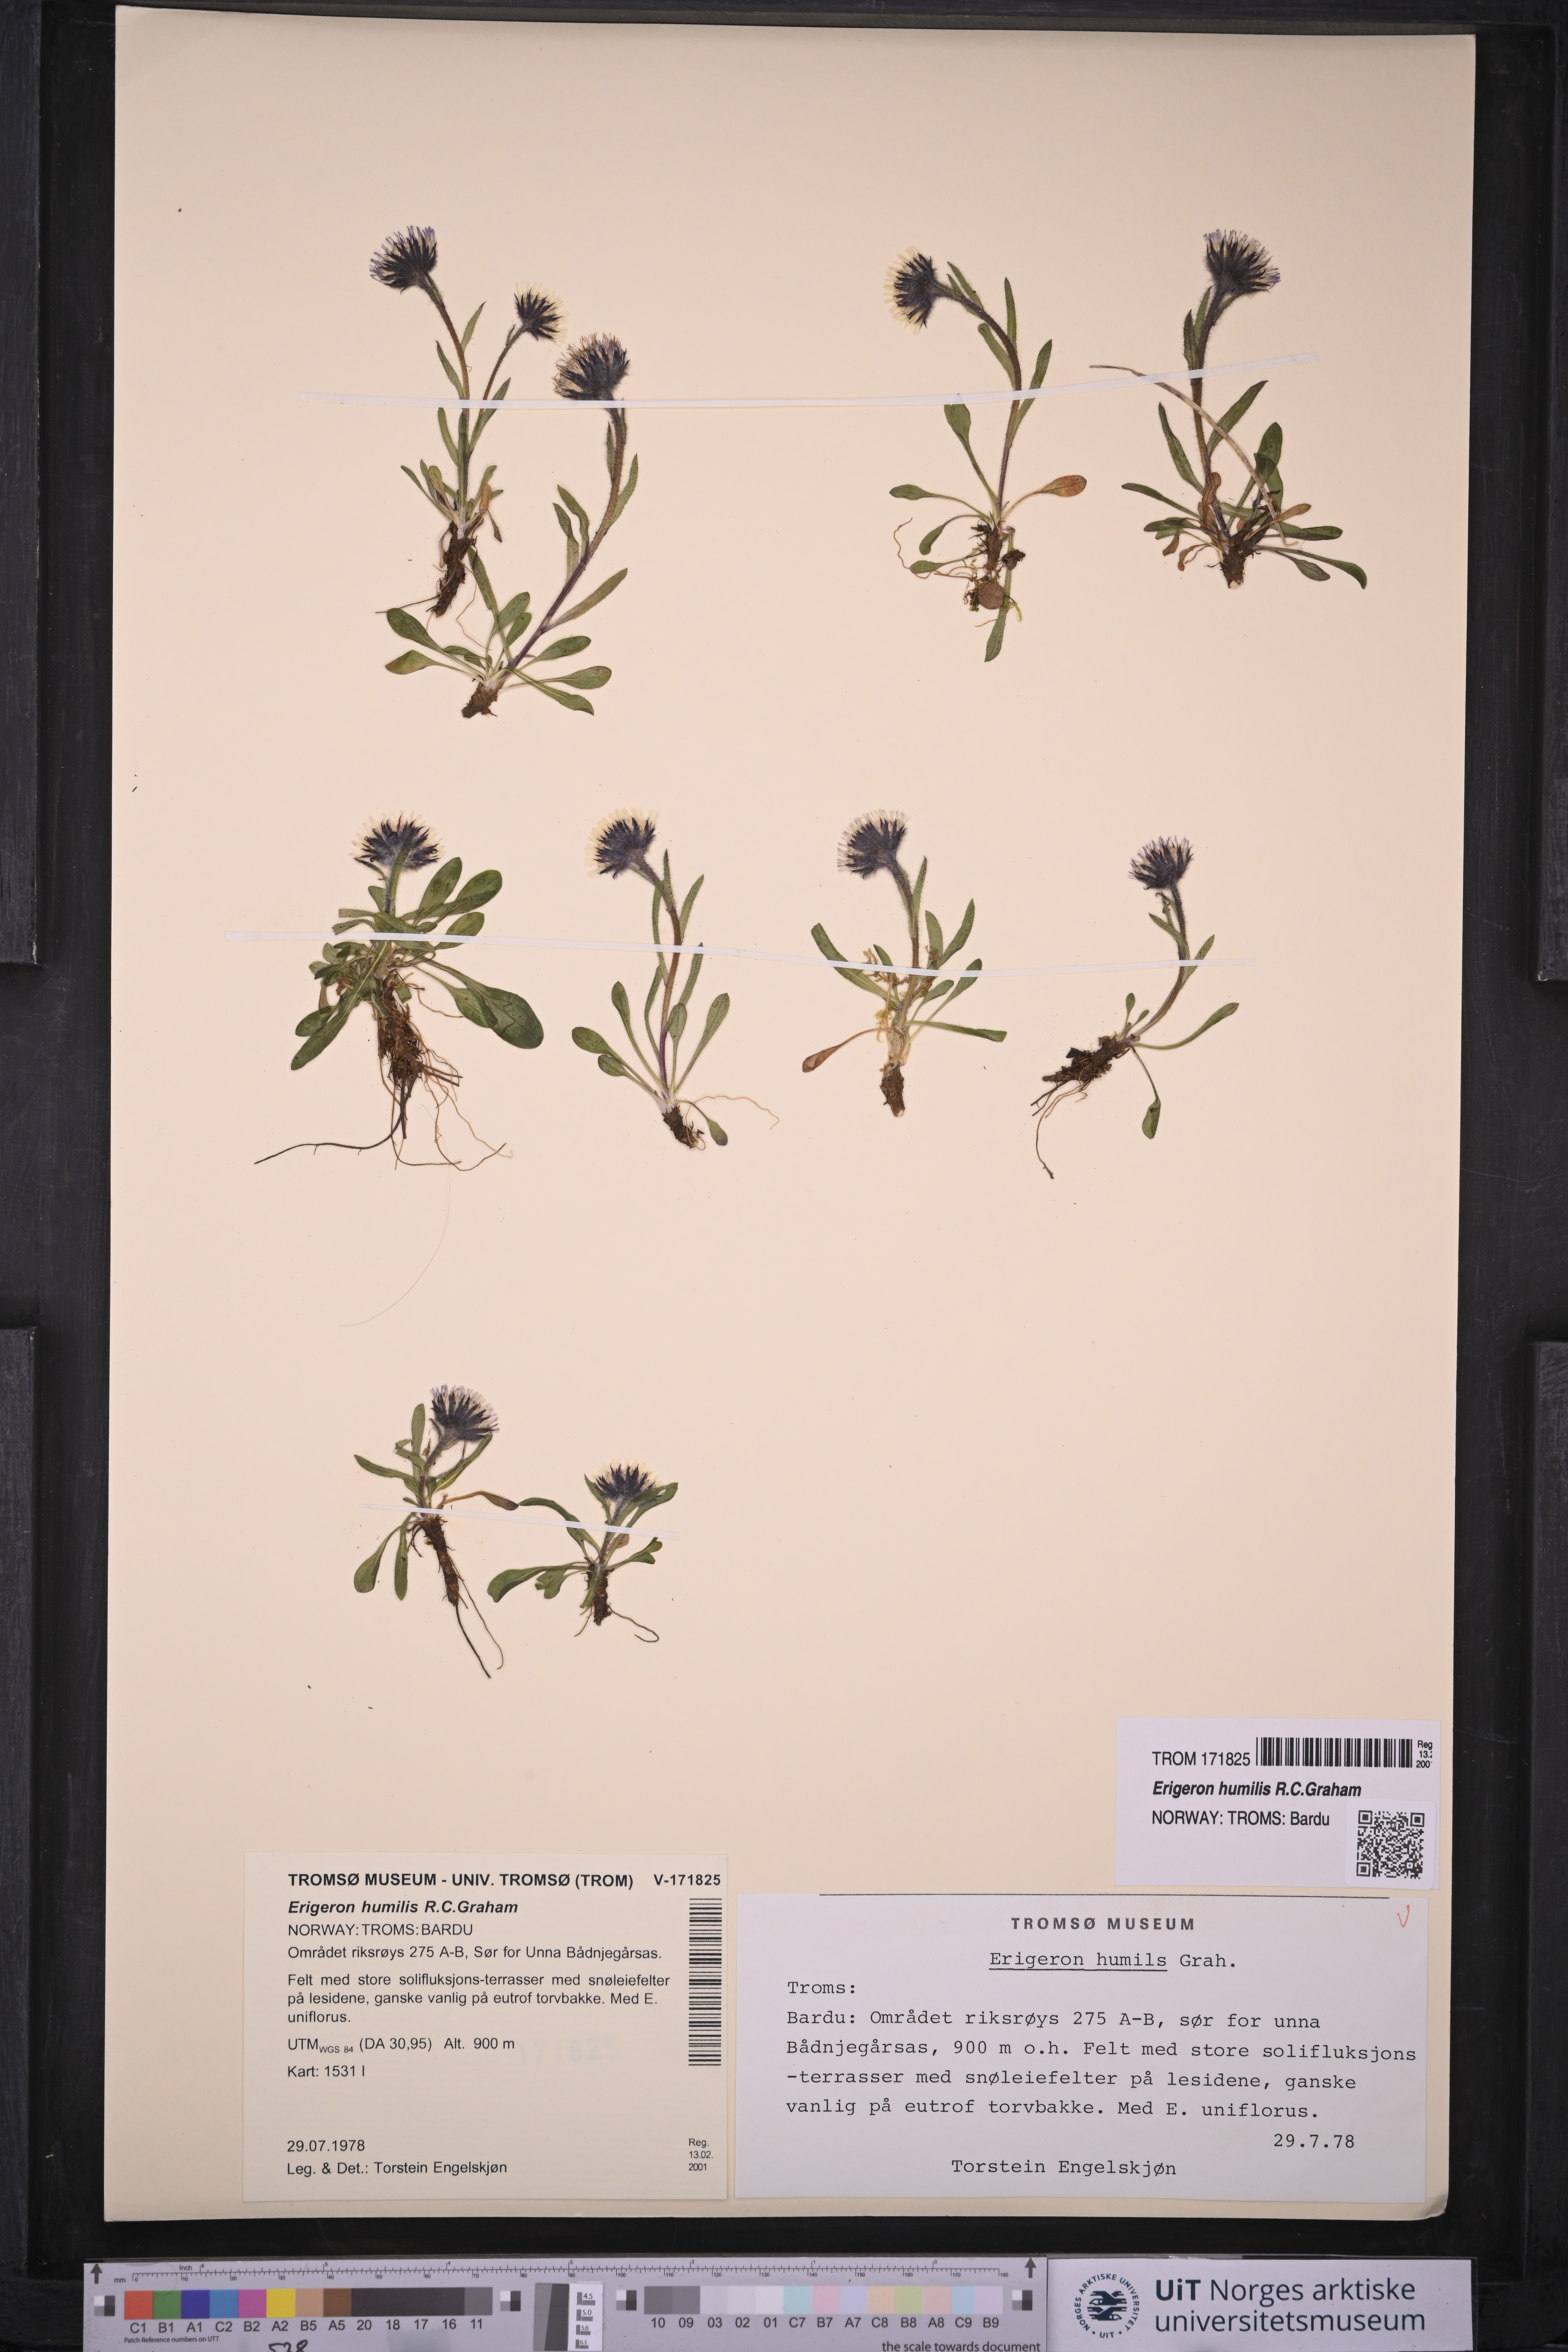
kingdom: Plantae
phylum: Tracheophyta
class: Magnoliopsida
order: Asterales
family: Asteraceae
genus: Erigeron
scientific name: Erigeron humilis
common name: Arctic-alpine fleabane
